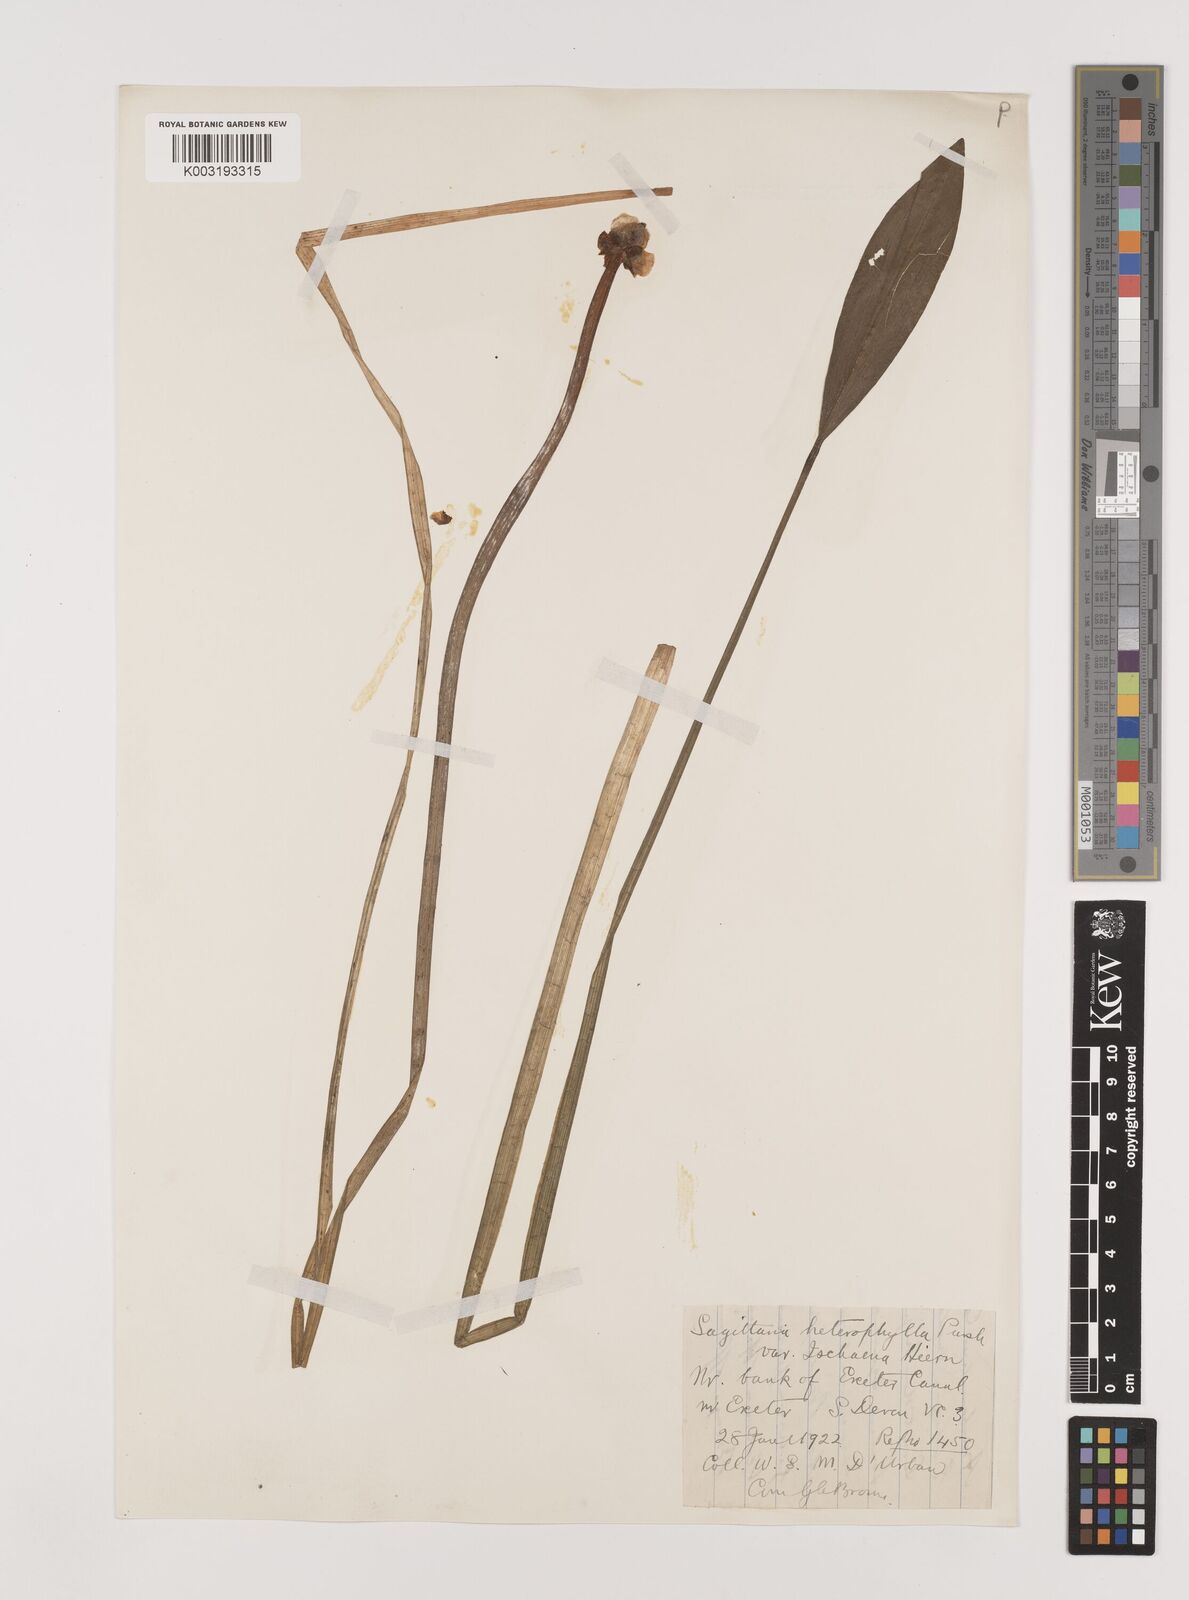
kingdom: Plantae
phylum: Tracheophyta
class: Liliopsida
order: Alismatales
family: Alismataceae
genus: Sagittaria
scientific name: Sagittaria sagittifolia
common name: Arrowhead
